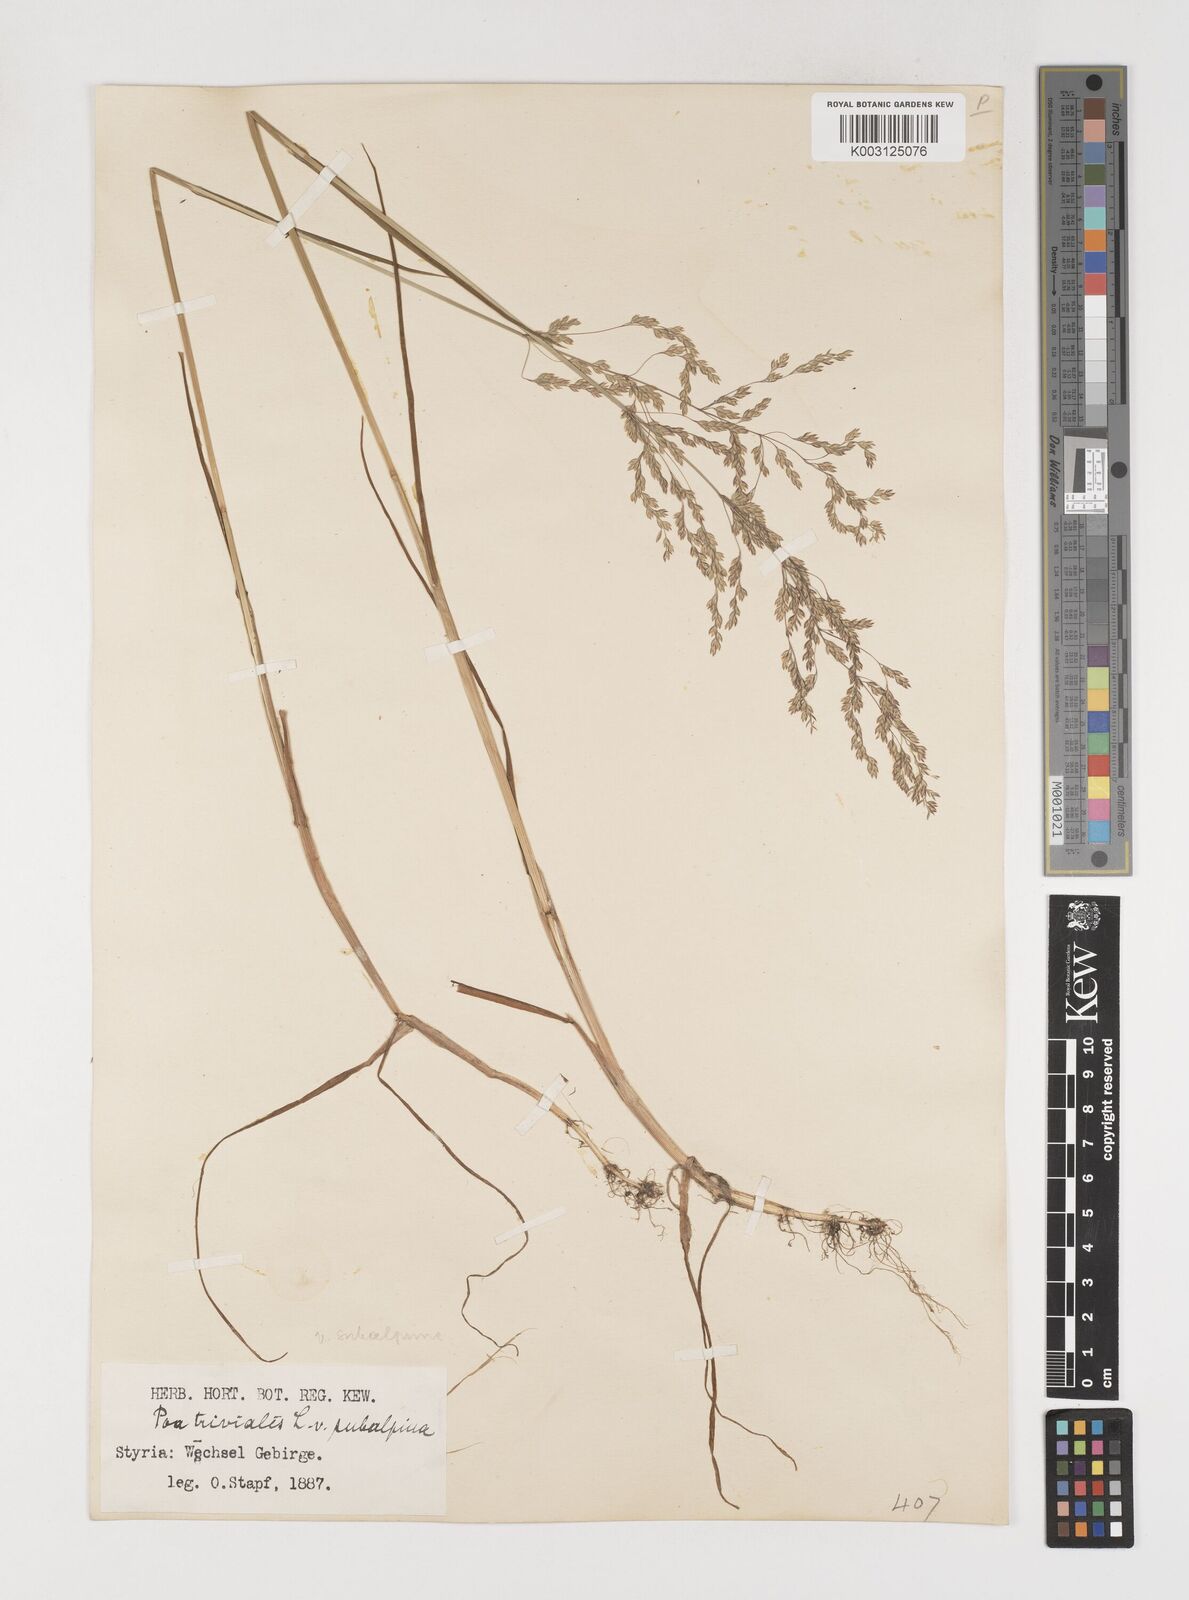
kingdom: Plantae
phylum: Tracheophyta
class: Liliopsida
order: Poales
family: Poaceae
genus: Poa
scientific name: Poa trivialis
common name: Rough bluegrass
